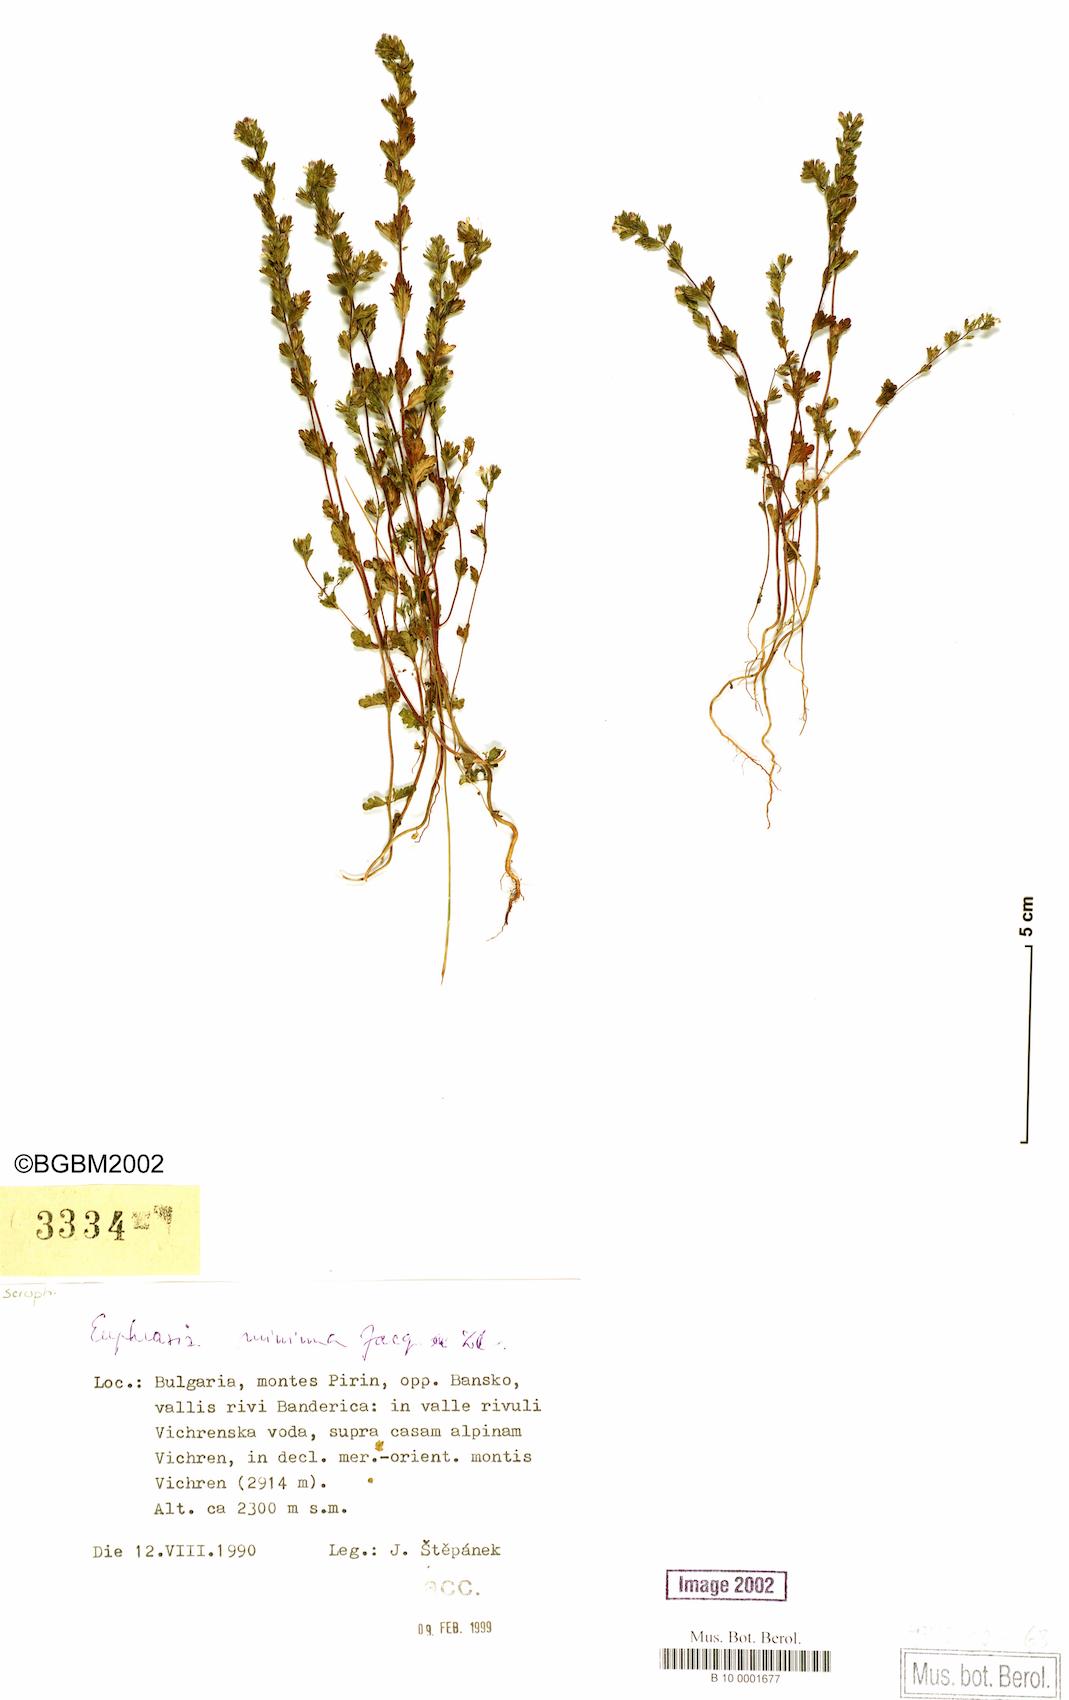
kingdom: Plantae
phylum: Tracheophyta
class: Magnoliopsida
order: Lamiales
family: Orobanchaceae
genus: Euphrasia
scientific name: Euphrasia minima
